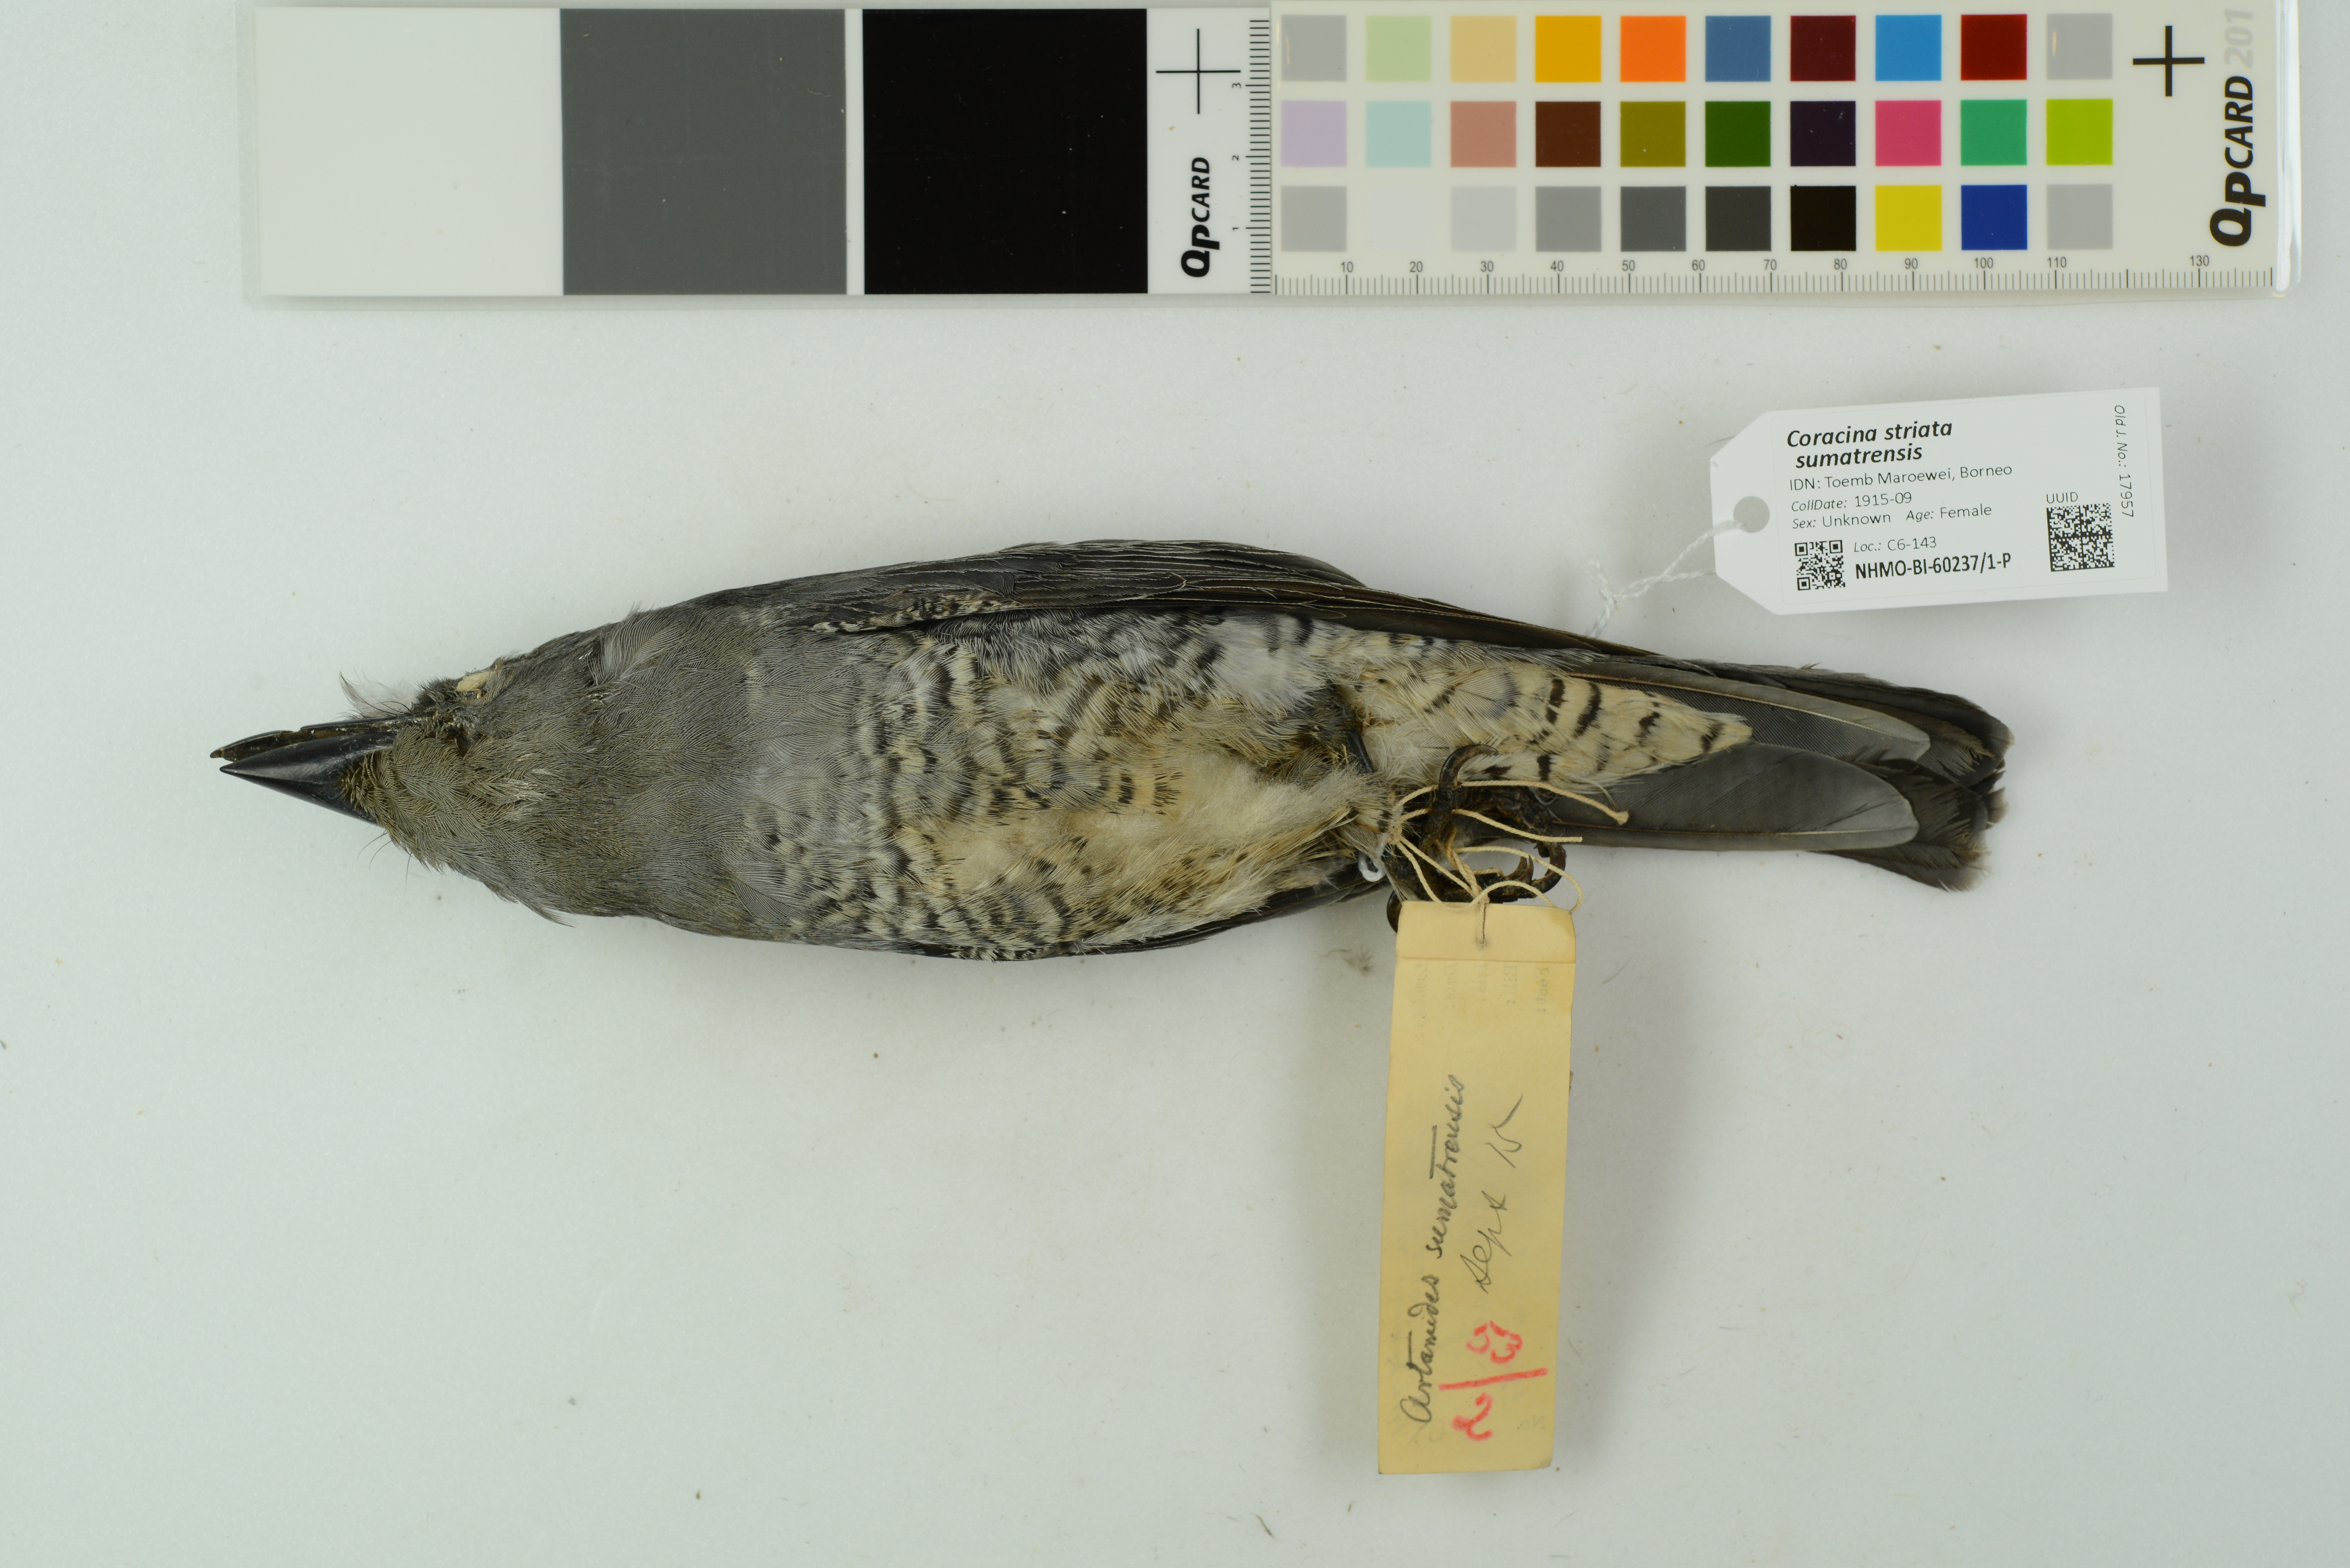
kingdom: Animalia
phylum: Chordata
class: Aves
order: Passeriformes
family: Campephagidae
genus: Coracina
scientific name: Coracina striata
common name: Bar-bellied cuckooshrike
